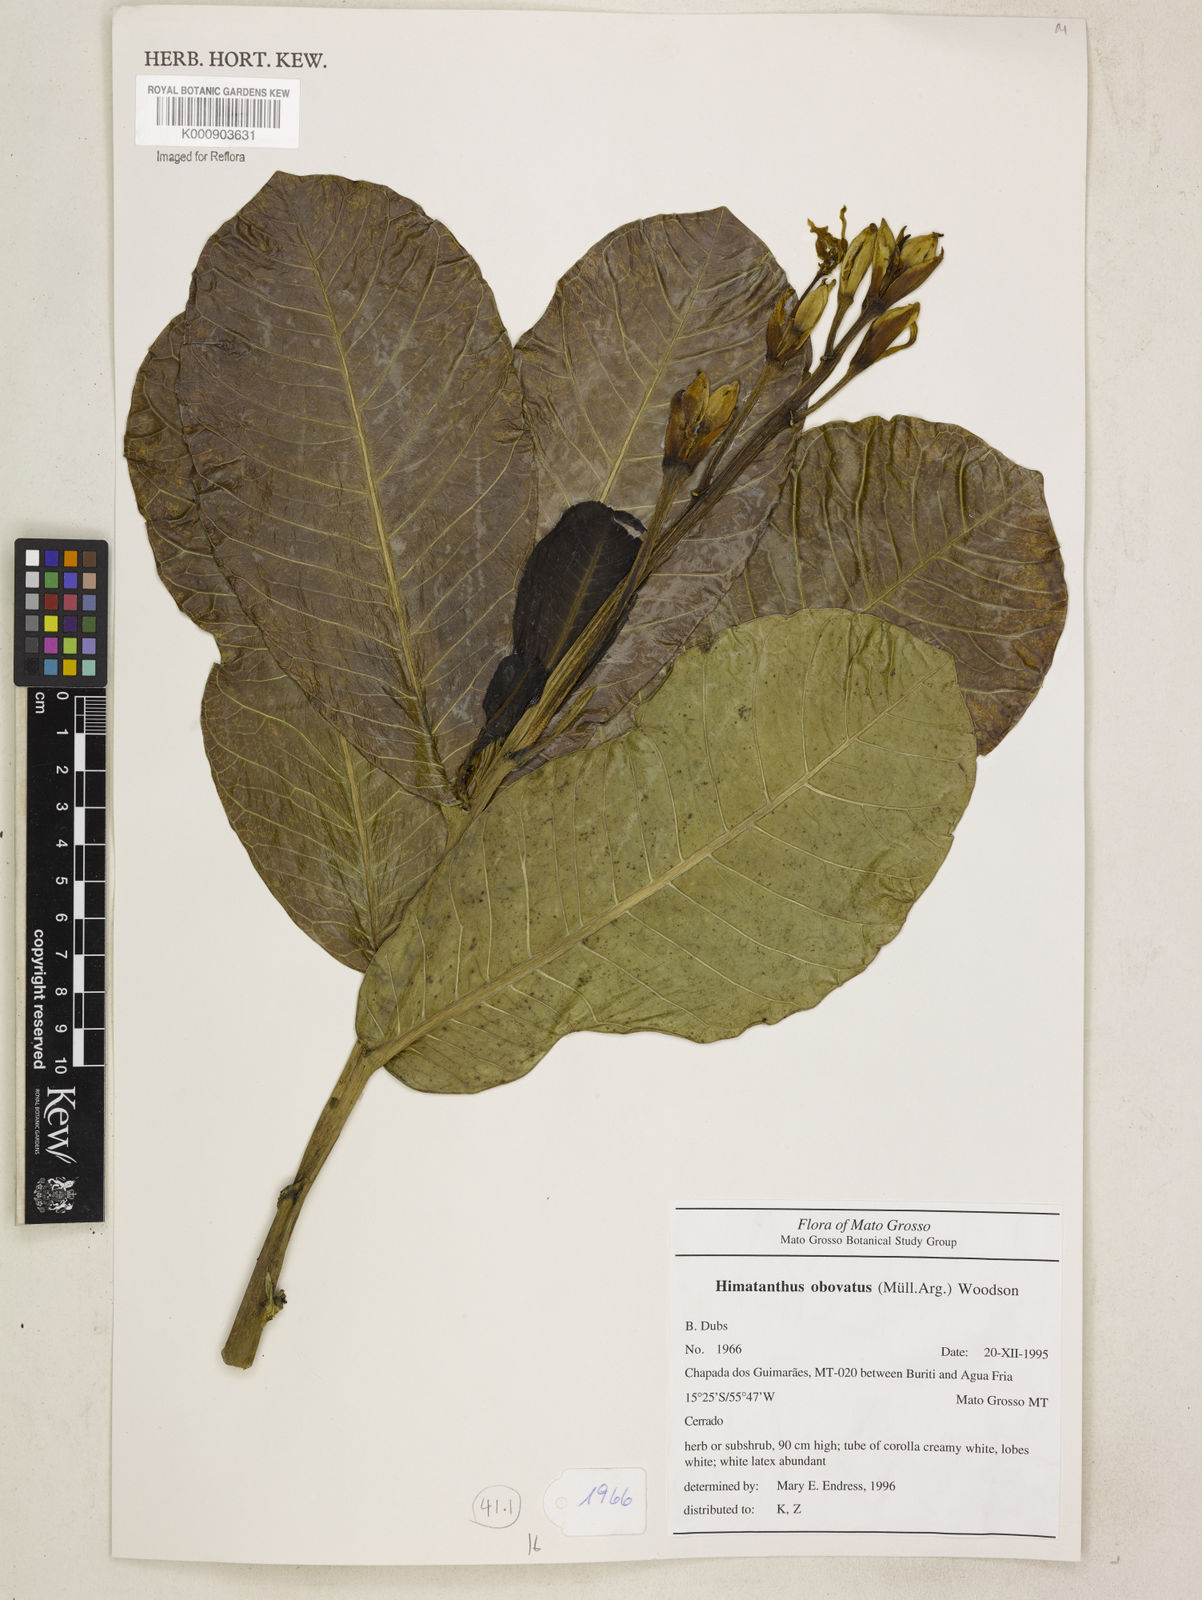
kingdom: Plantae
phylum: Tracheophyta
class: Magnoliopsida
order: Gentianales
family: Apocynaceae
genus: Himatanthus
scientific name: Himatanthus
